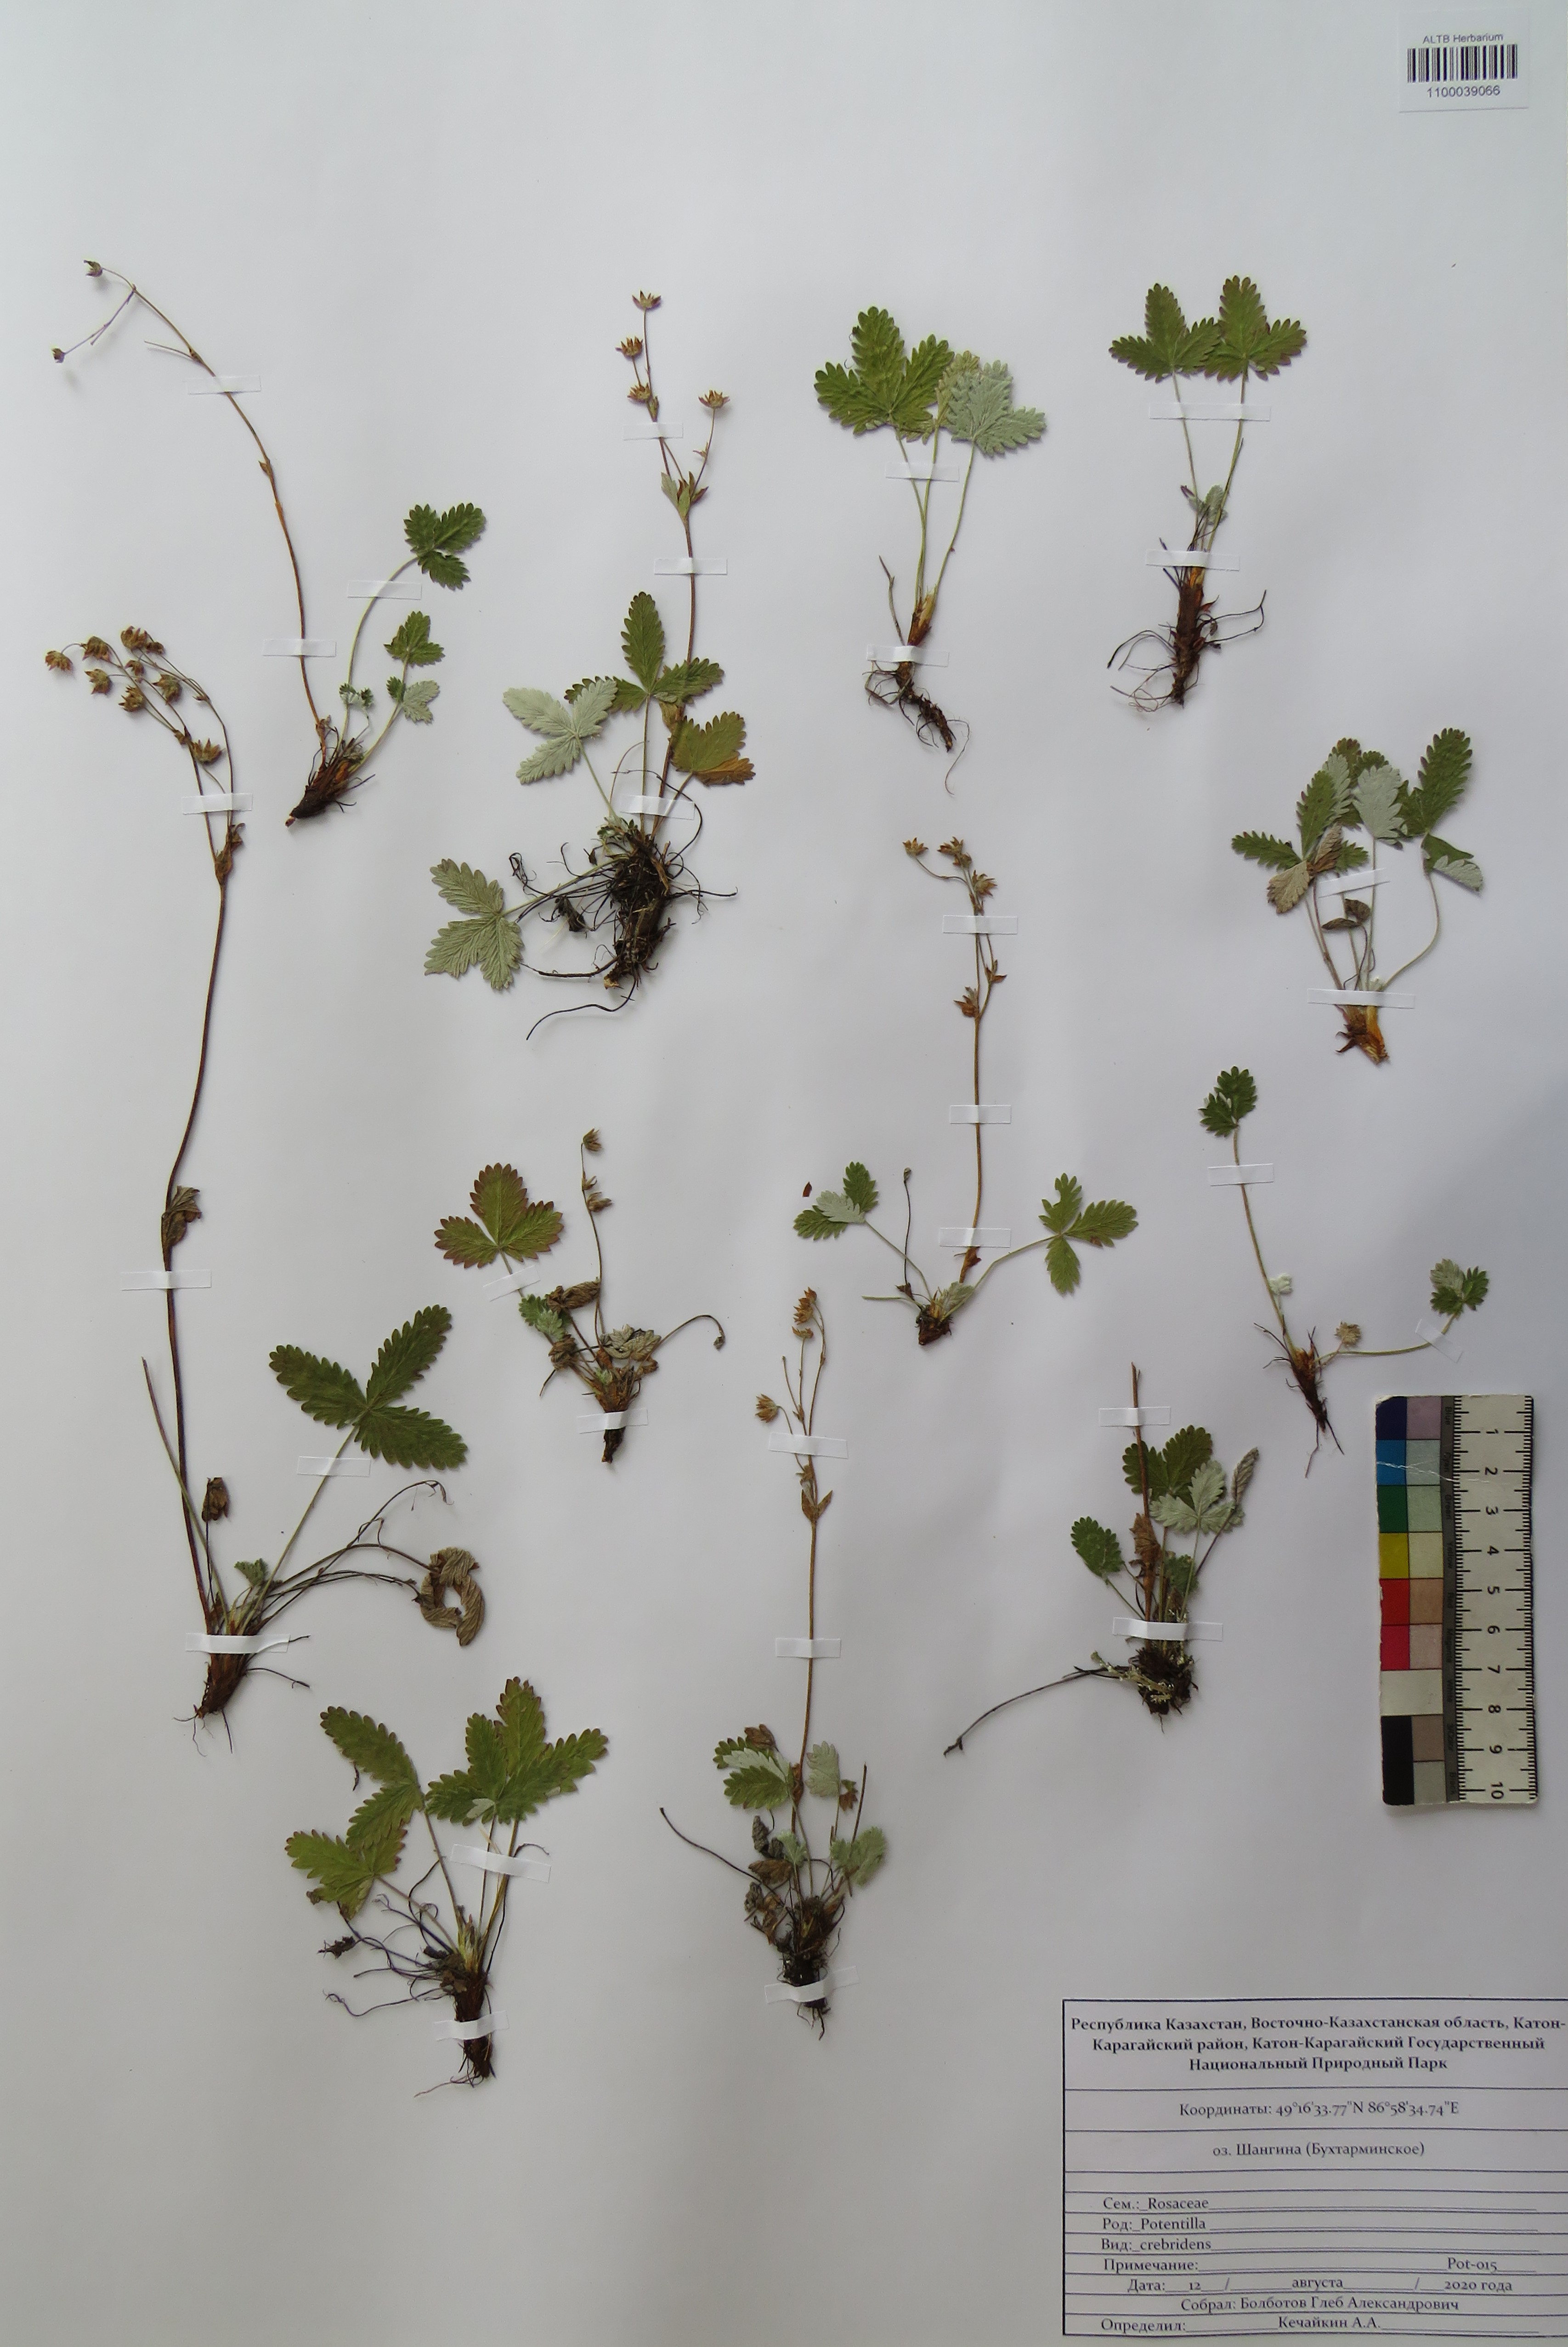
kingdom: Plantae
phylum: Tracheophyta
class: Magnoliopsida
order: Rosales
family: Rosaceae
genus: Potentilla
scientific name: Potentilla crebridens
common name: Congested cinquefoil
